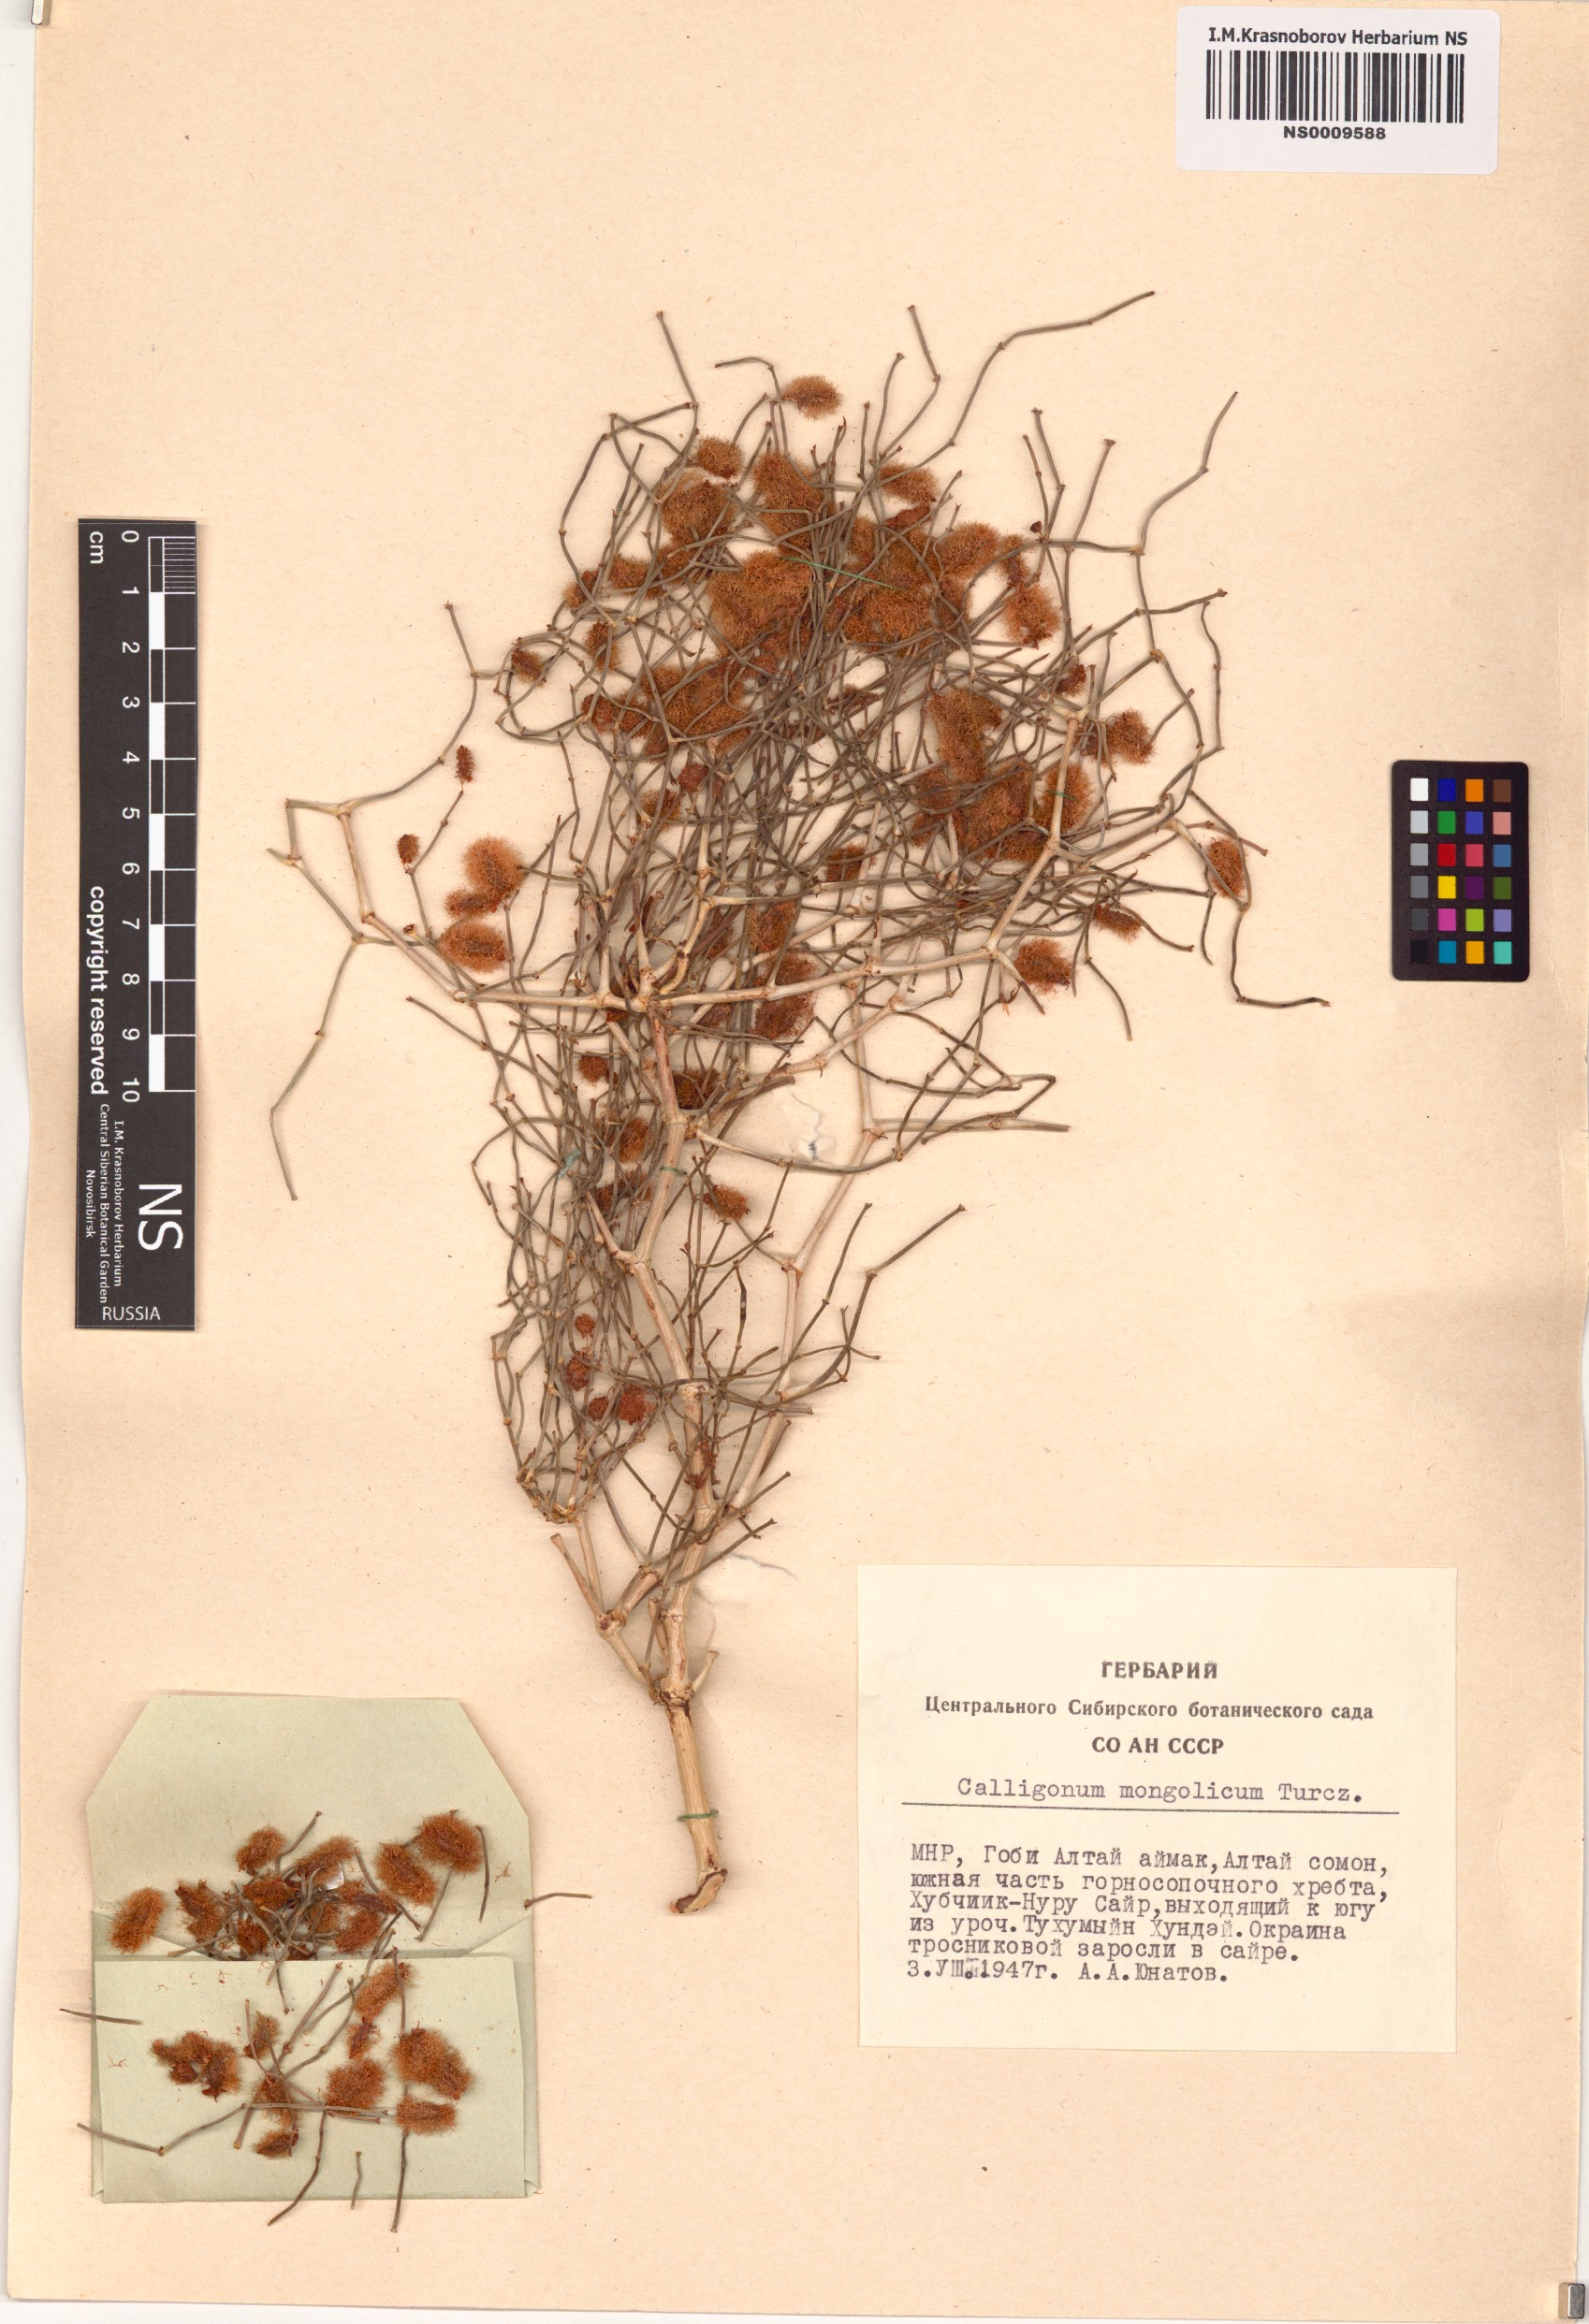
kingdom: Plantae
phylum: Tracheophyta
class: Magnoliopsida
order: Caryophyllales
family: Polygonaceae
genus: Calligonum
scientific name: Calligonum mongolicum
